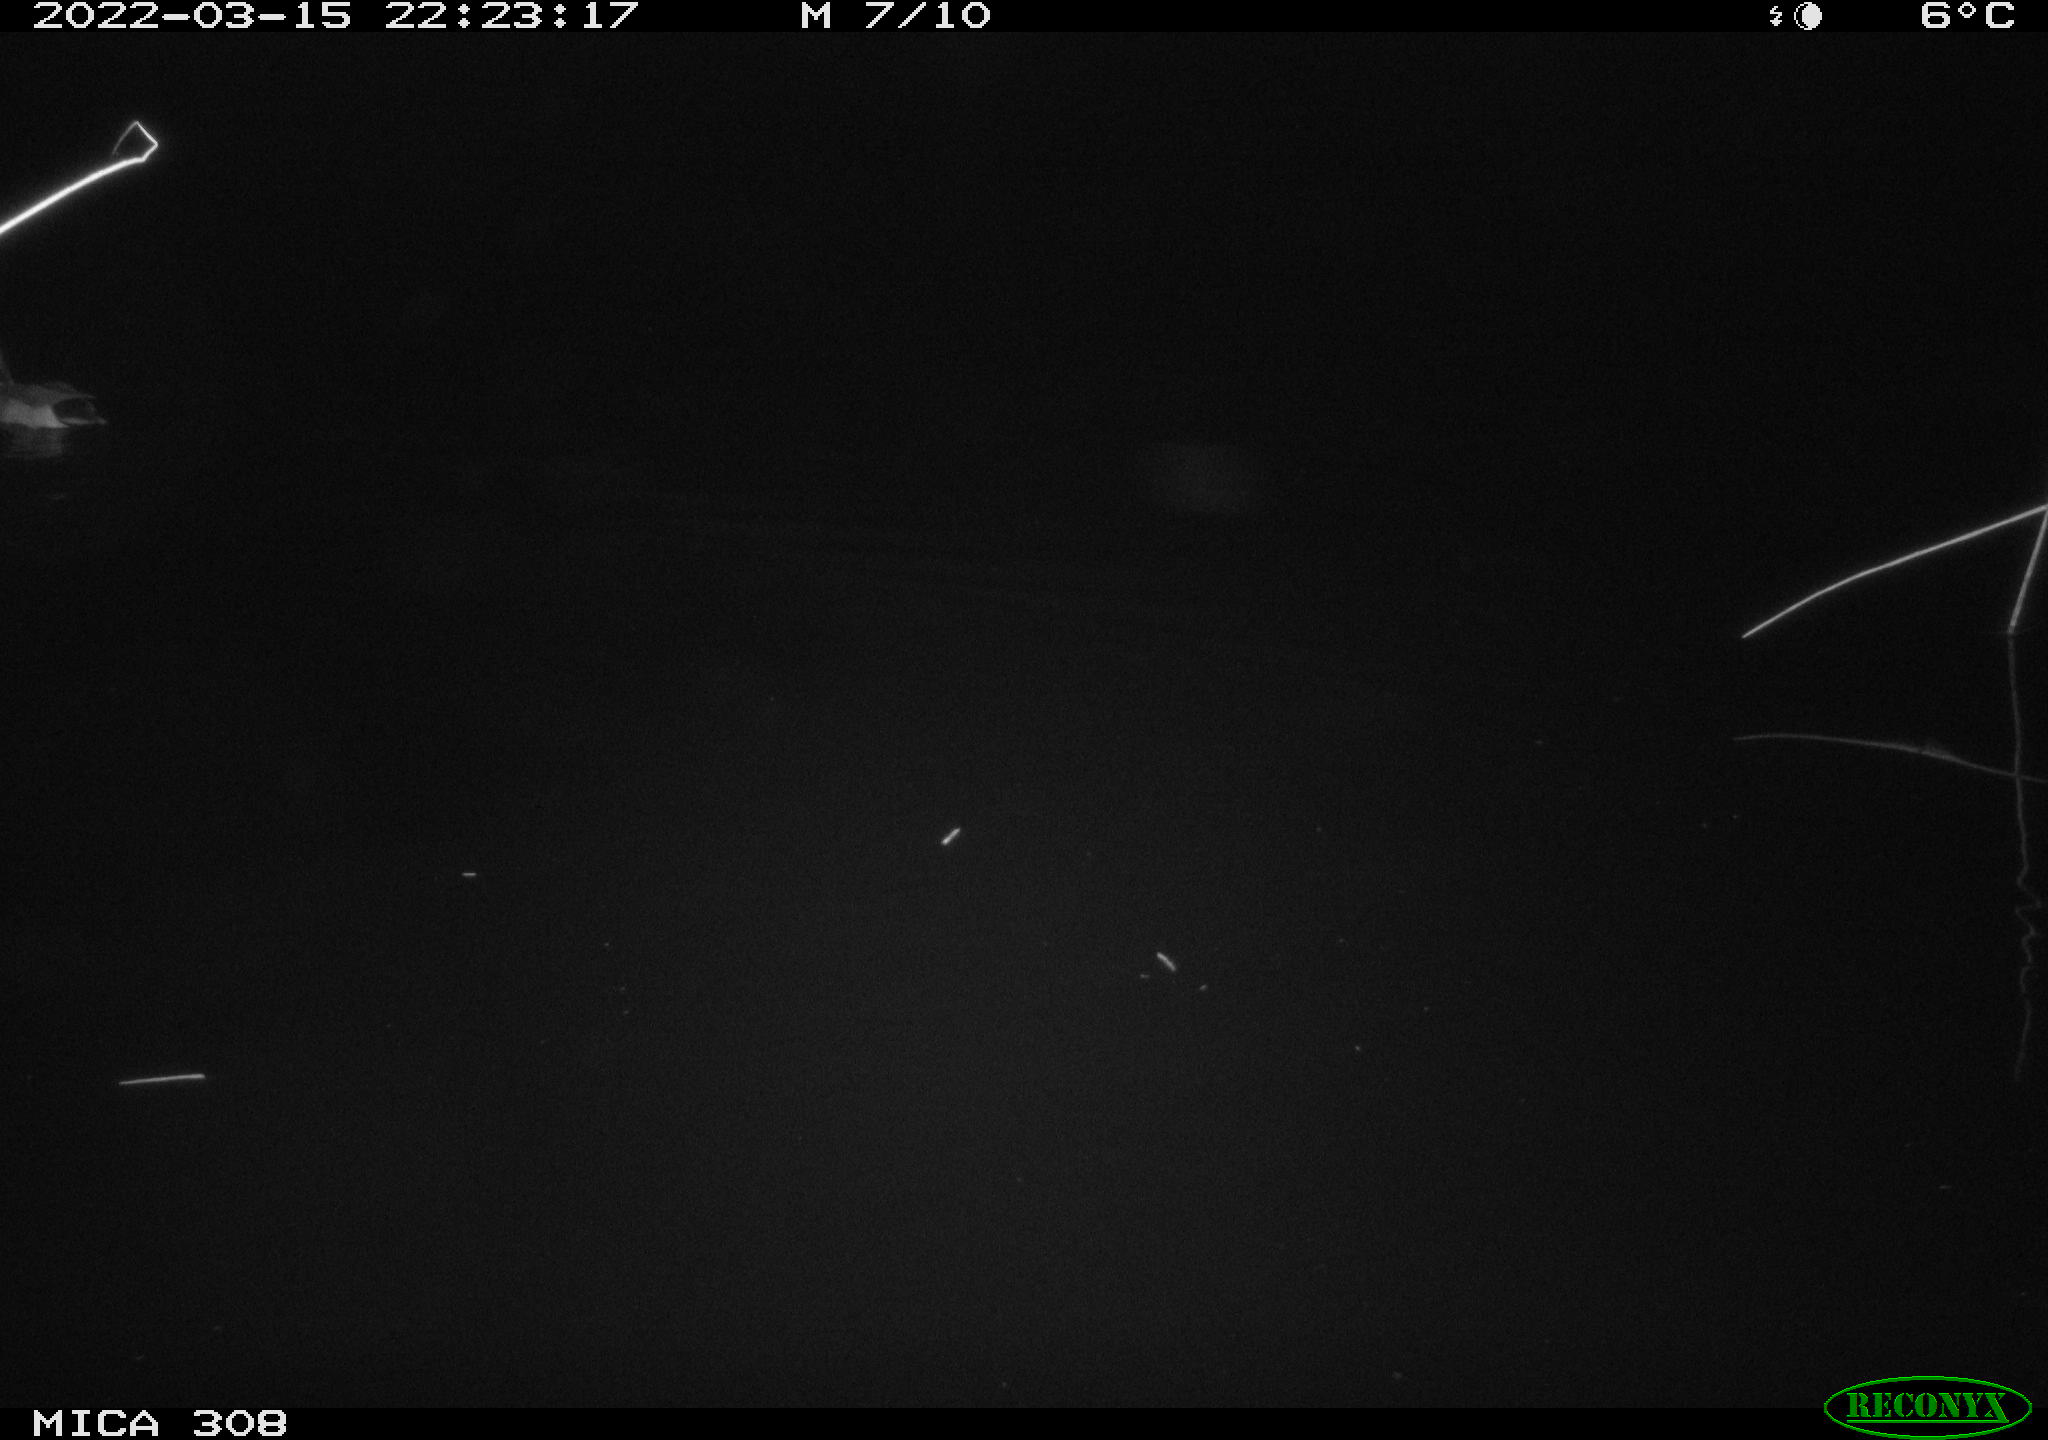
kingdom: Animalia
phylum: Chordata
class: Aves
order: Anseriformes
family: Anatidae
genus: Anas
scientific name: Anas platyrhynchos
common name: Mallard
